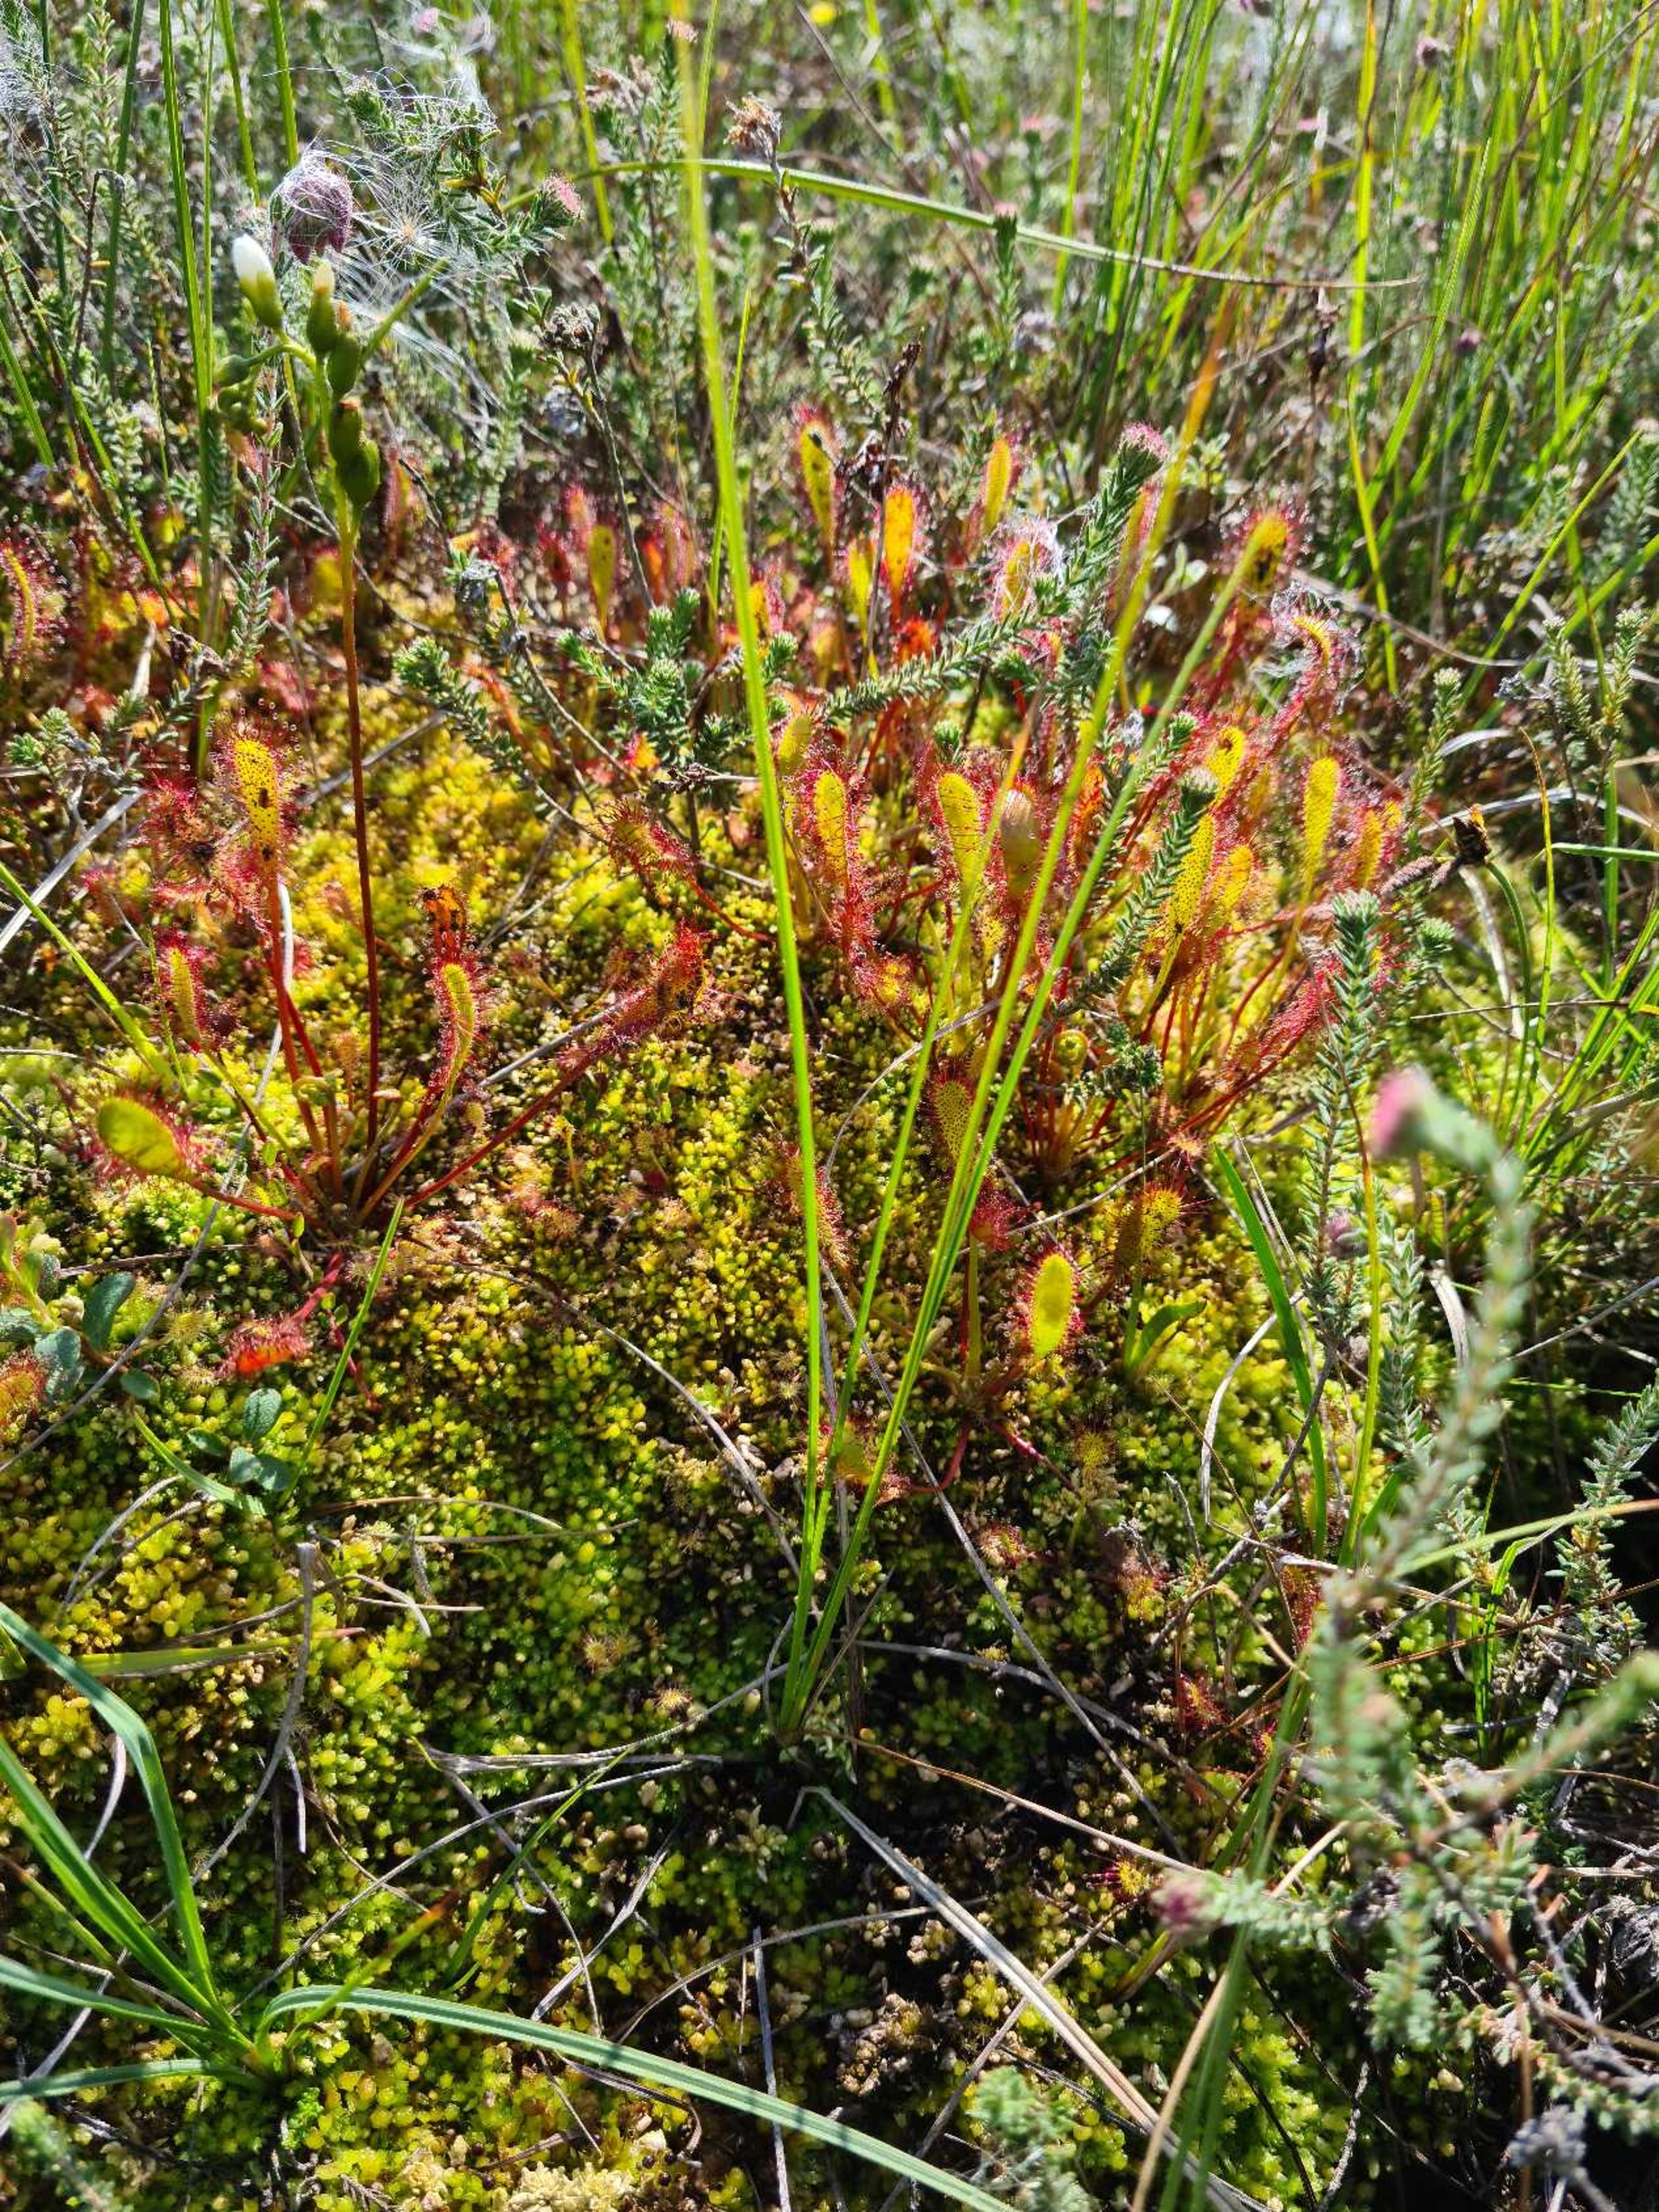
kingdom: Plantae
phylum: Tracheophyta
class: Magnoliopsida
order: Caryophyllales
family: Droseraceae
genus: Drosera
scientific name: Drosera anglica
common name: Langbladet soldug
